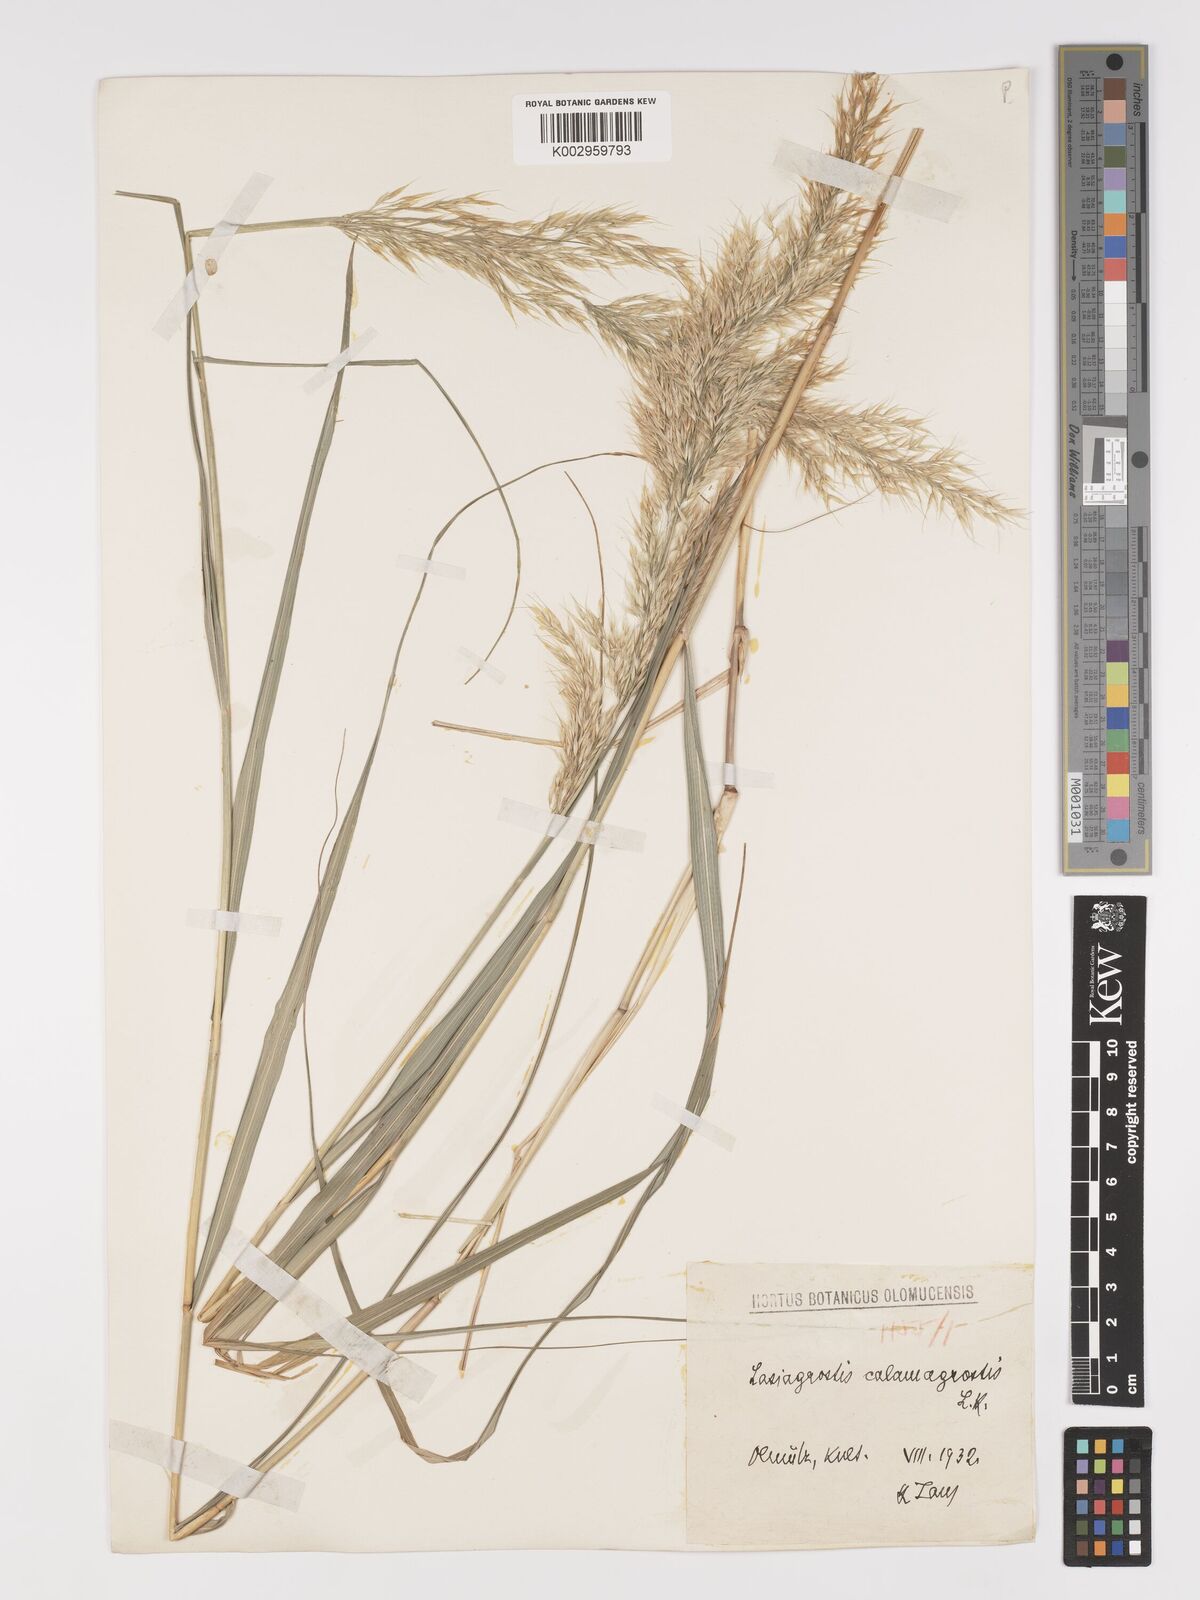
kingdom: Plantae
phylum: Tracheophyta
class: Liliopsida
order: Poales
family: Poaceae
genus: Achnatherum
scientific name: Achnatherum calamagrostis
